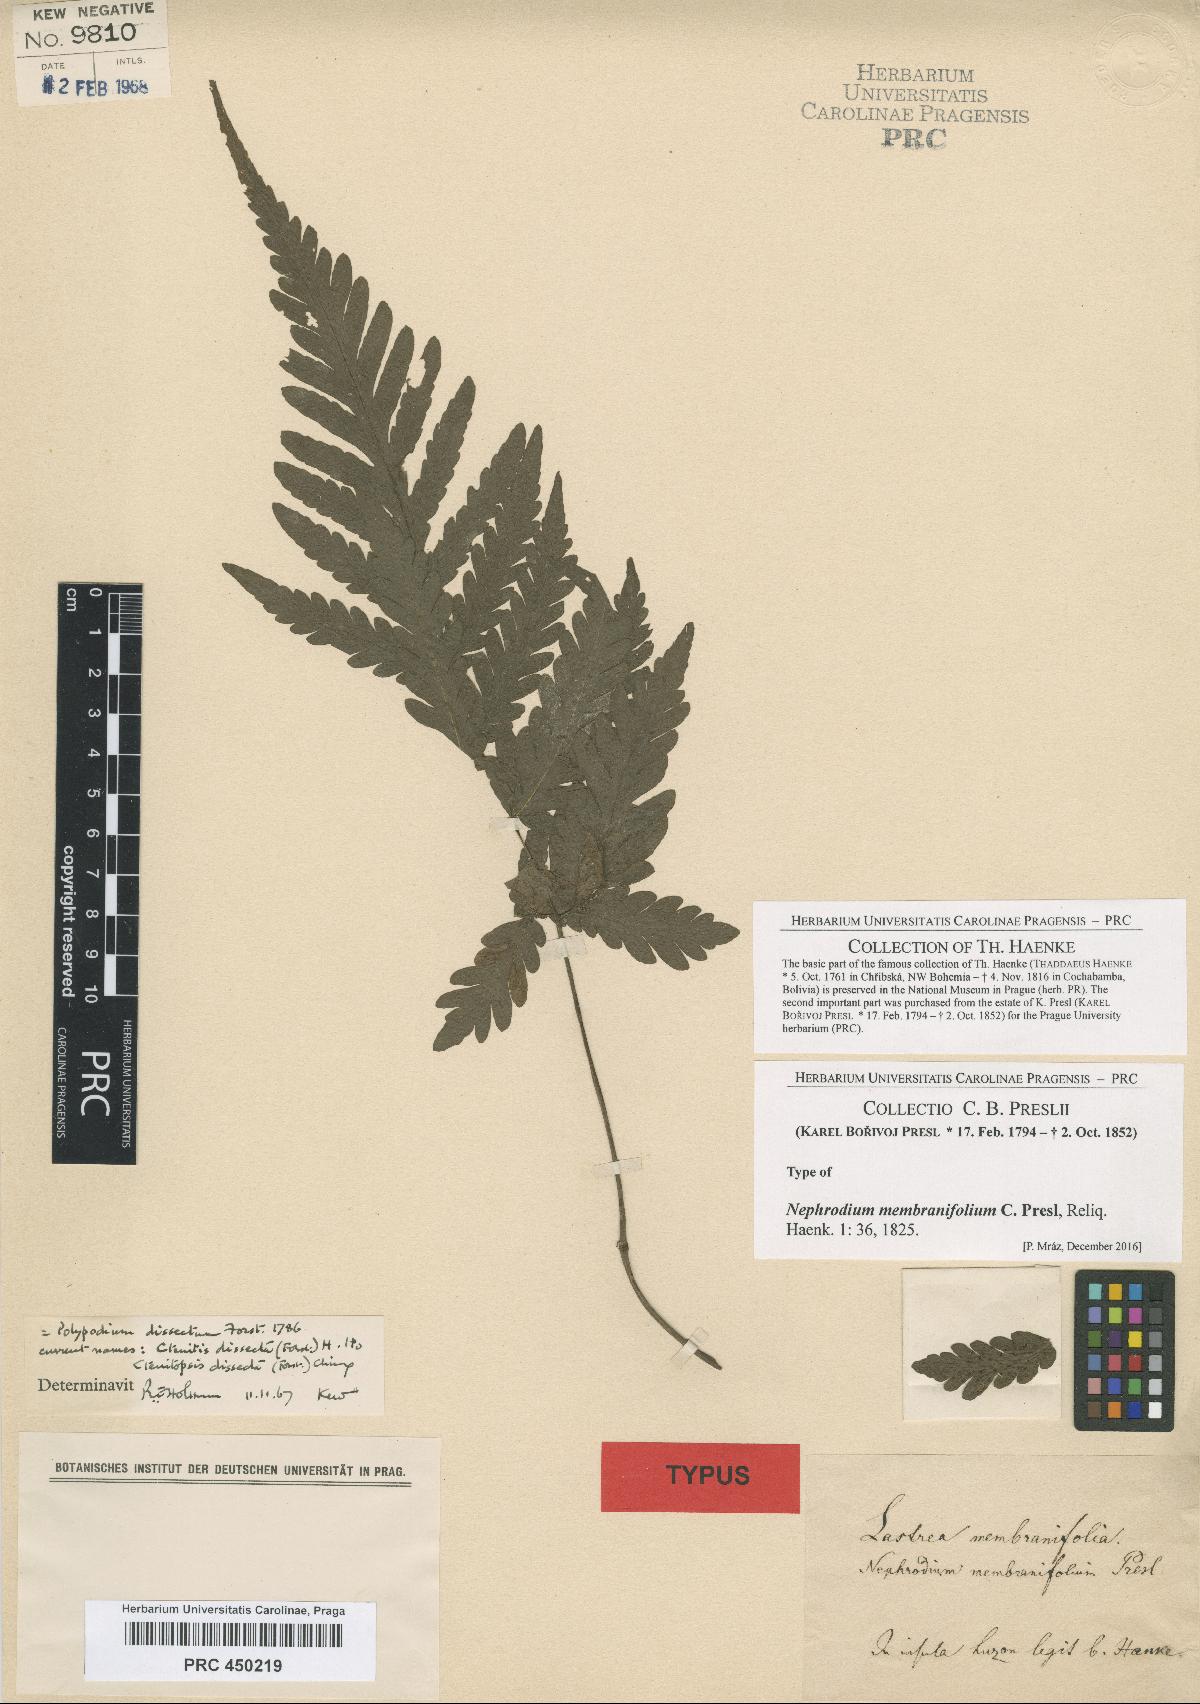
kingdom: Plantae
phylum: Tracheophyta
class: Polypodiopsida
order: Polypodiales
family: Tectariaceae
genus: Tectaria
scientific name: Tectaria dissecta
